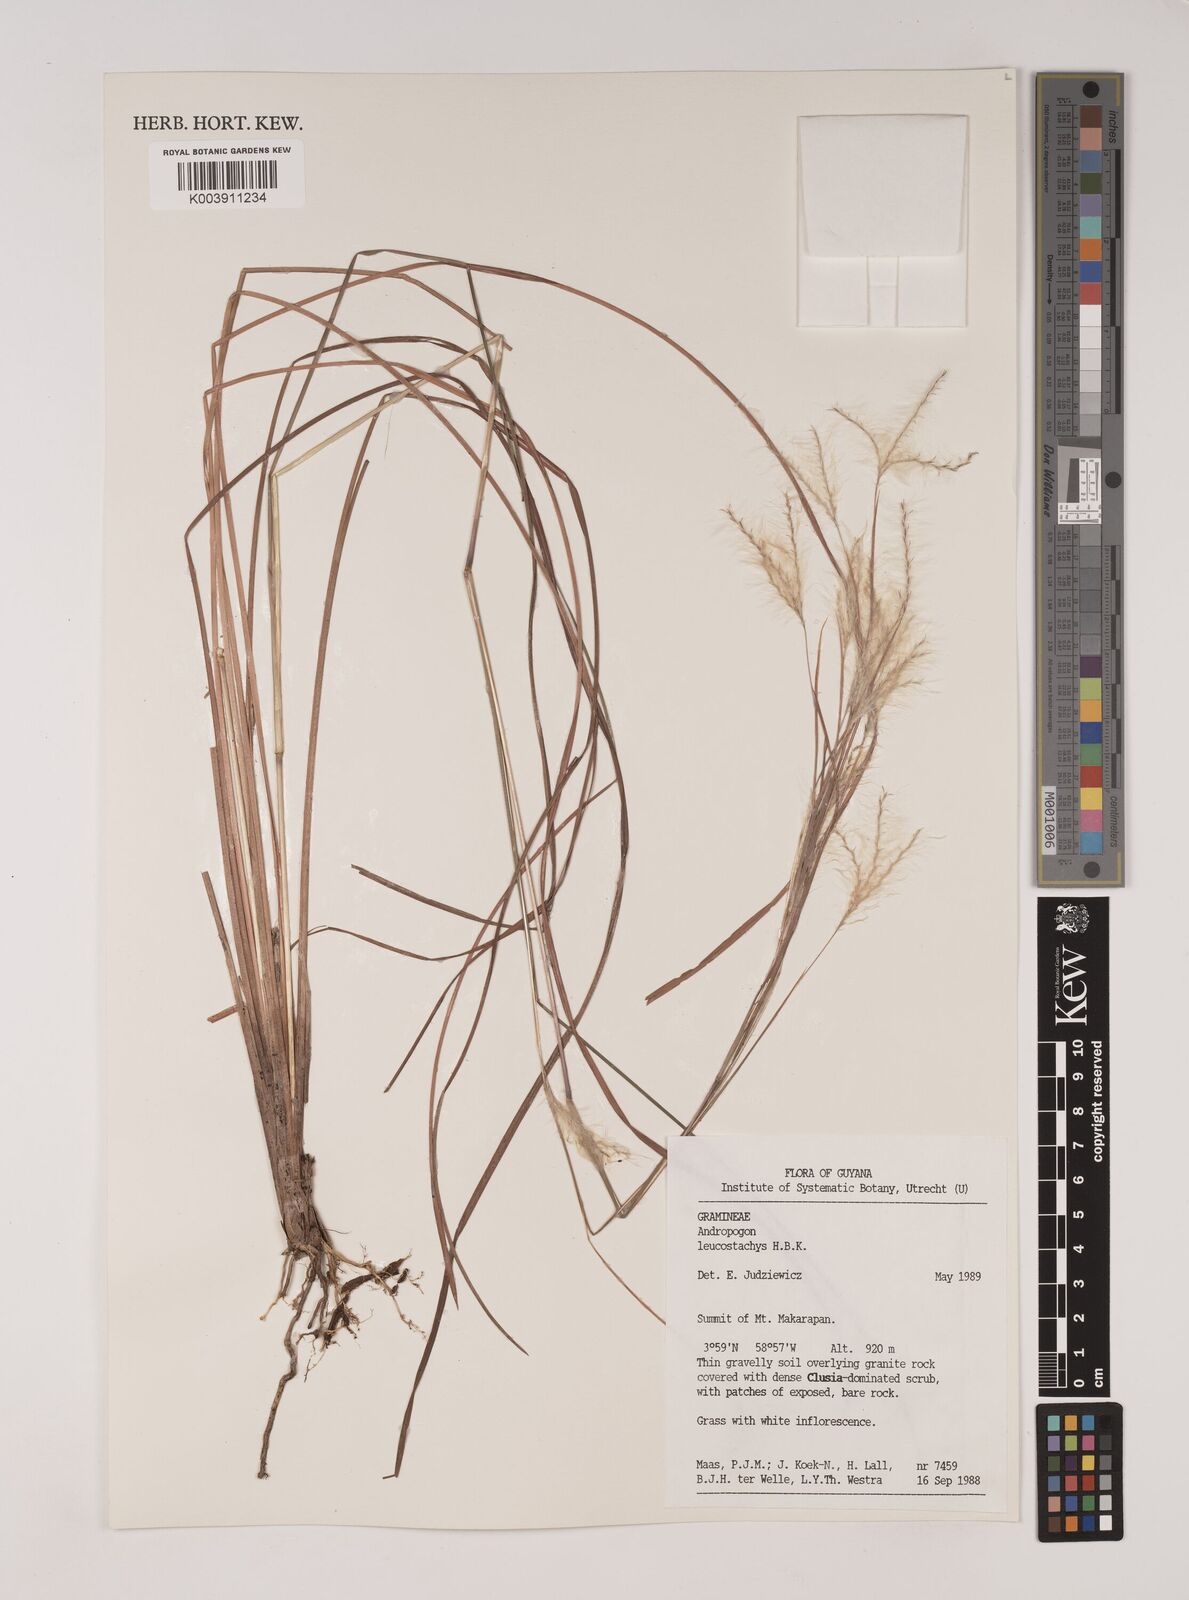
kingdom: Plantae
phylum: Tracheophyta
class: Liliopsida
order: Poales
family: Poaceae
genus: Andropogon
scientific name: Andropogon leucostachyus
